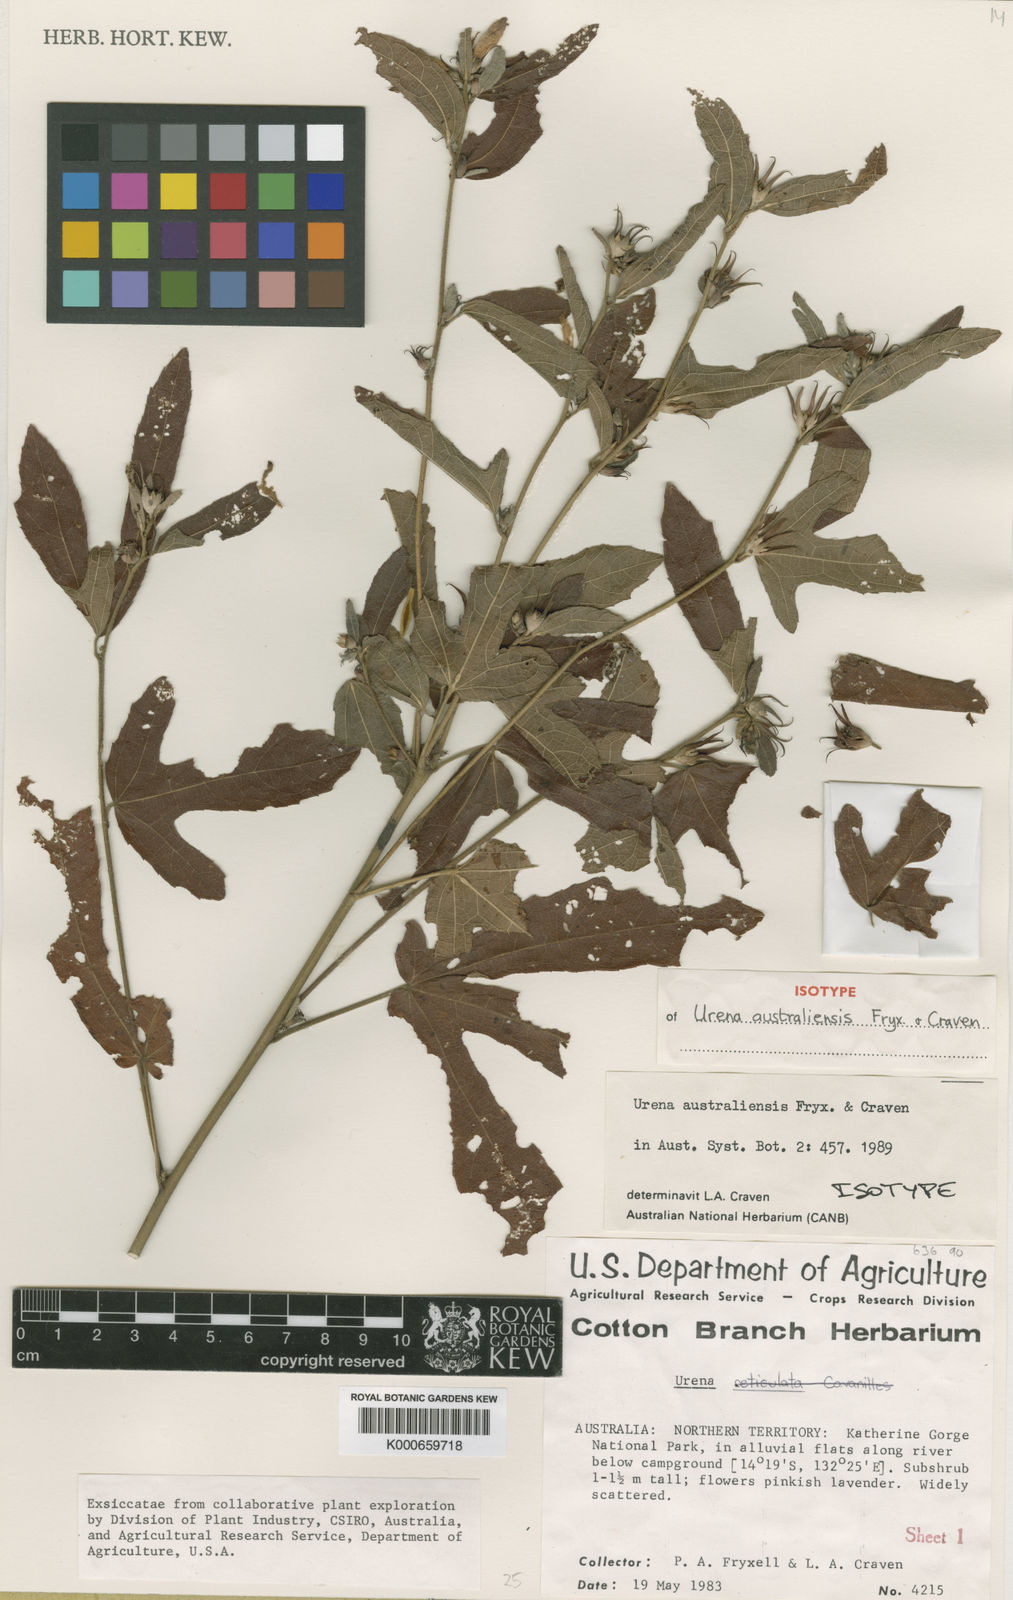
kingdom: Plantae
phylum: Tracheophyta
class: Magnoliopsida
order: Malvales
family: Malvaceae
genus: Urena
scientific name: Urena australiensis
